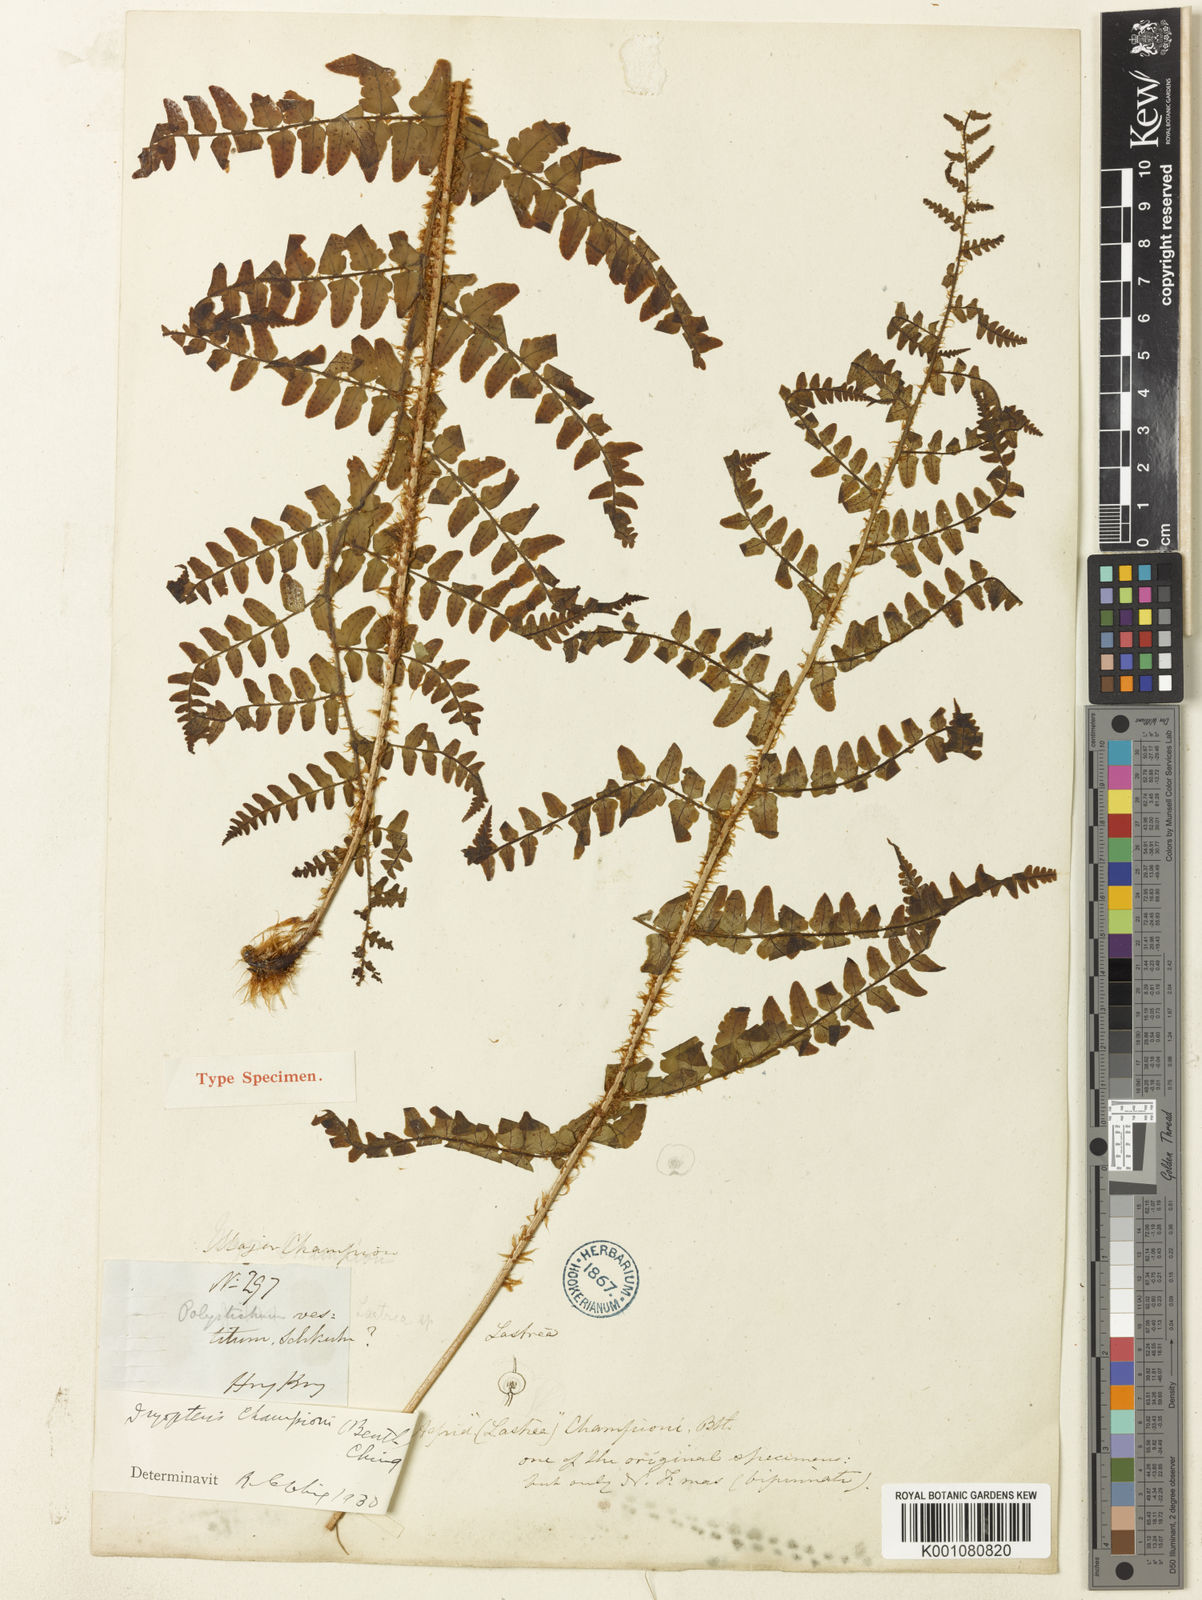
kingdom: Plantae
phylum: Tracheophyta
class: Polypodiopsida
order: Polypodiales
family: Dryopteridaceae
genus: Dryopteris
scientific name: Dryopteris championii
